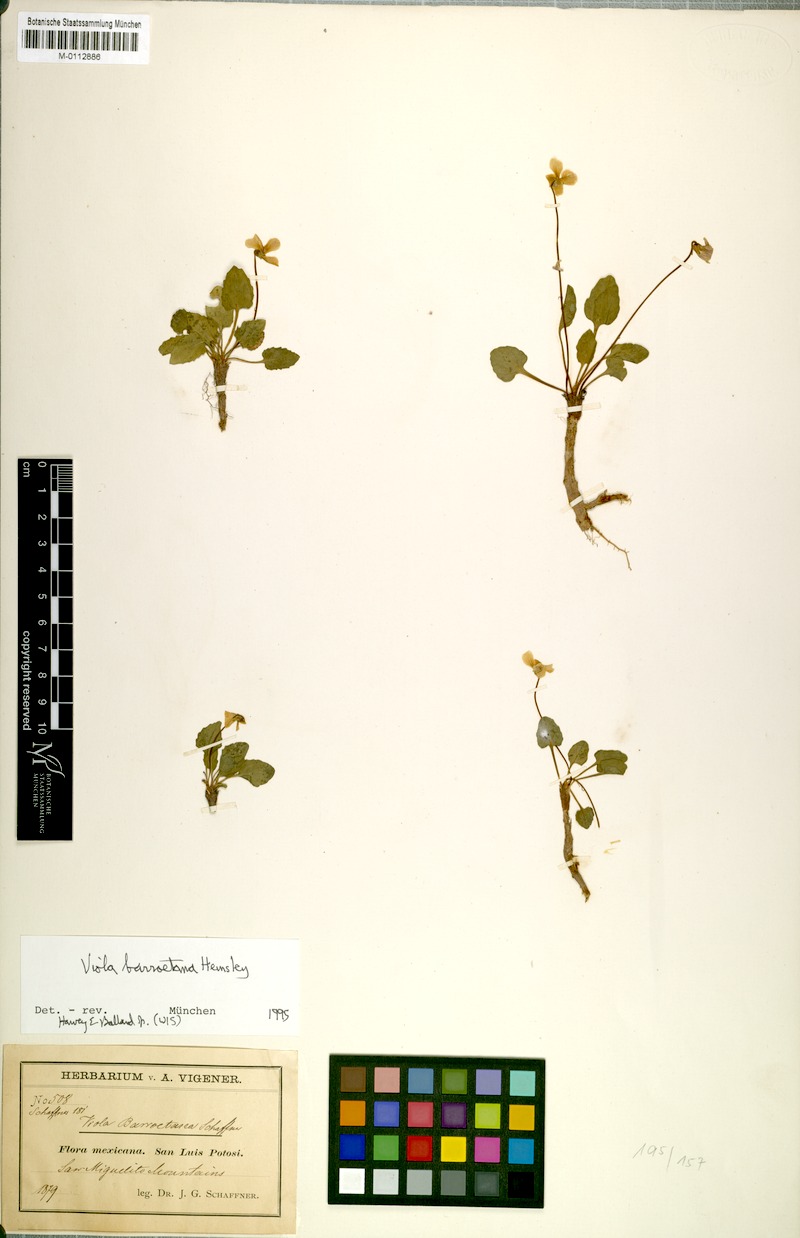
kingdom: Plantae
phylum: Tracheophyta
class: Magnoliopsida
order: Malpighiales
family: Violaceae
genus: Viola
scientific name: Viola barroetana
